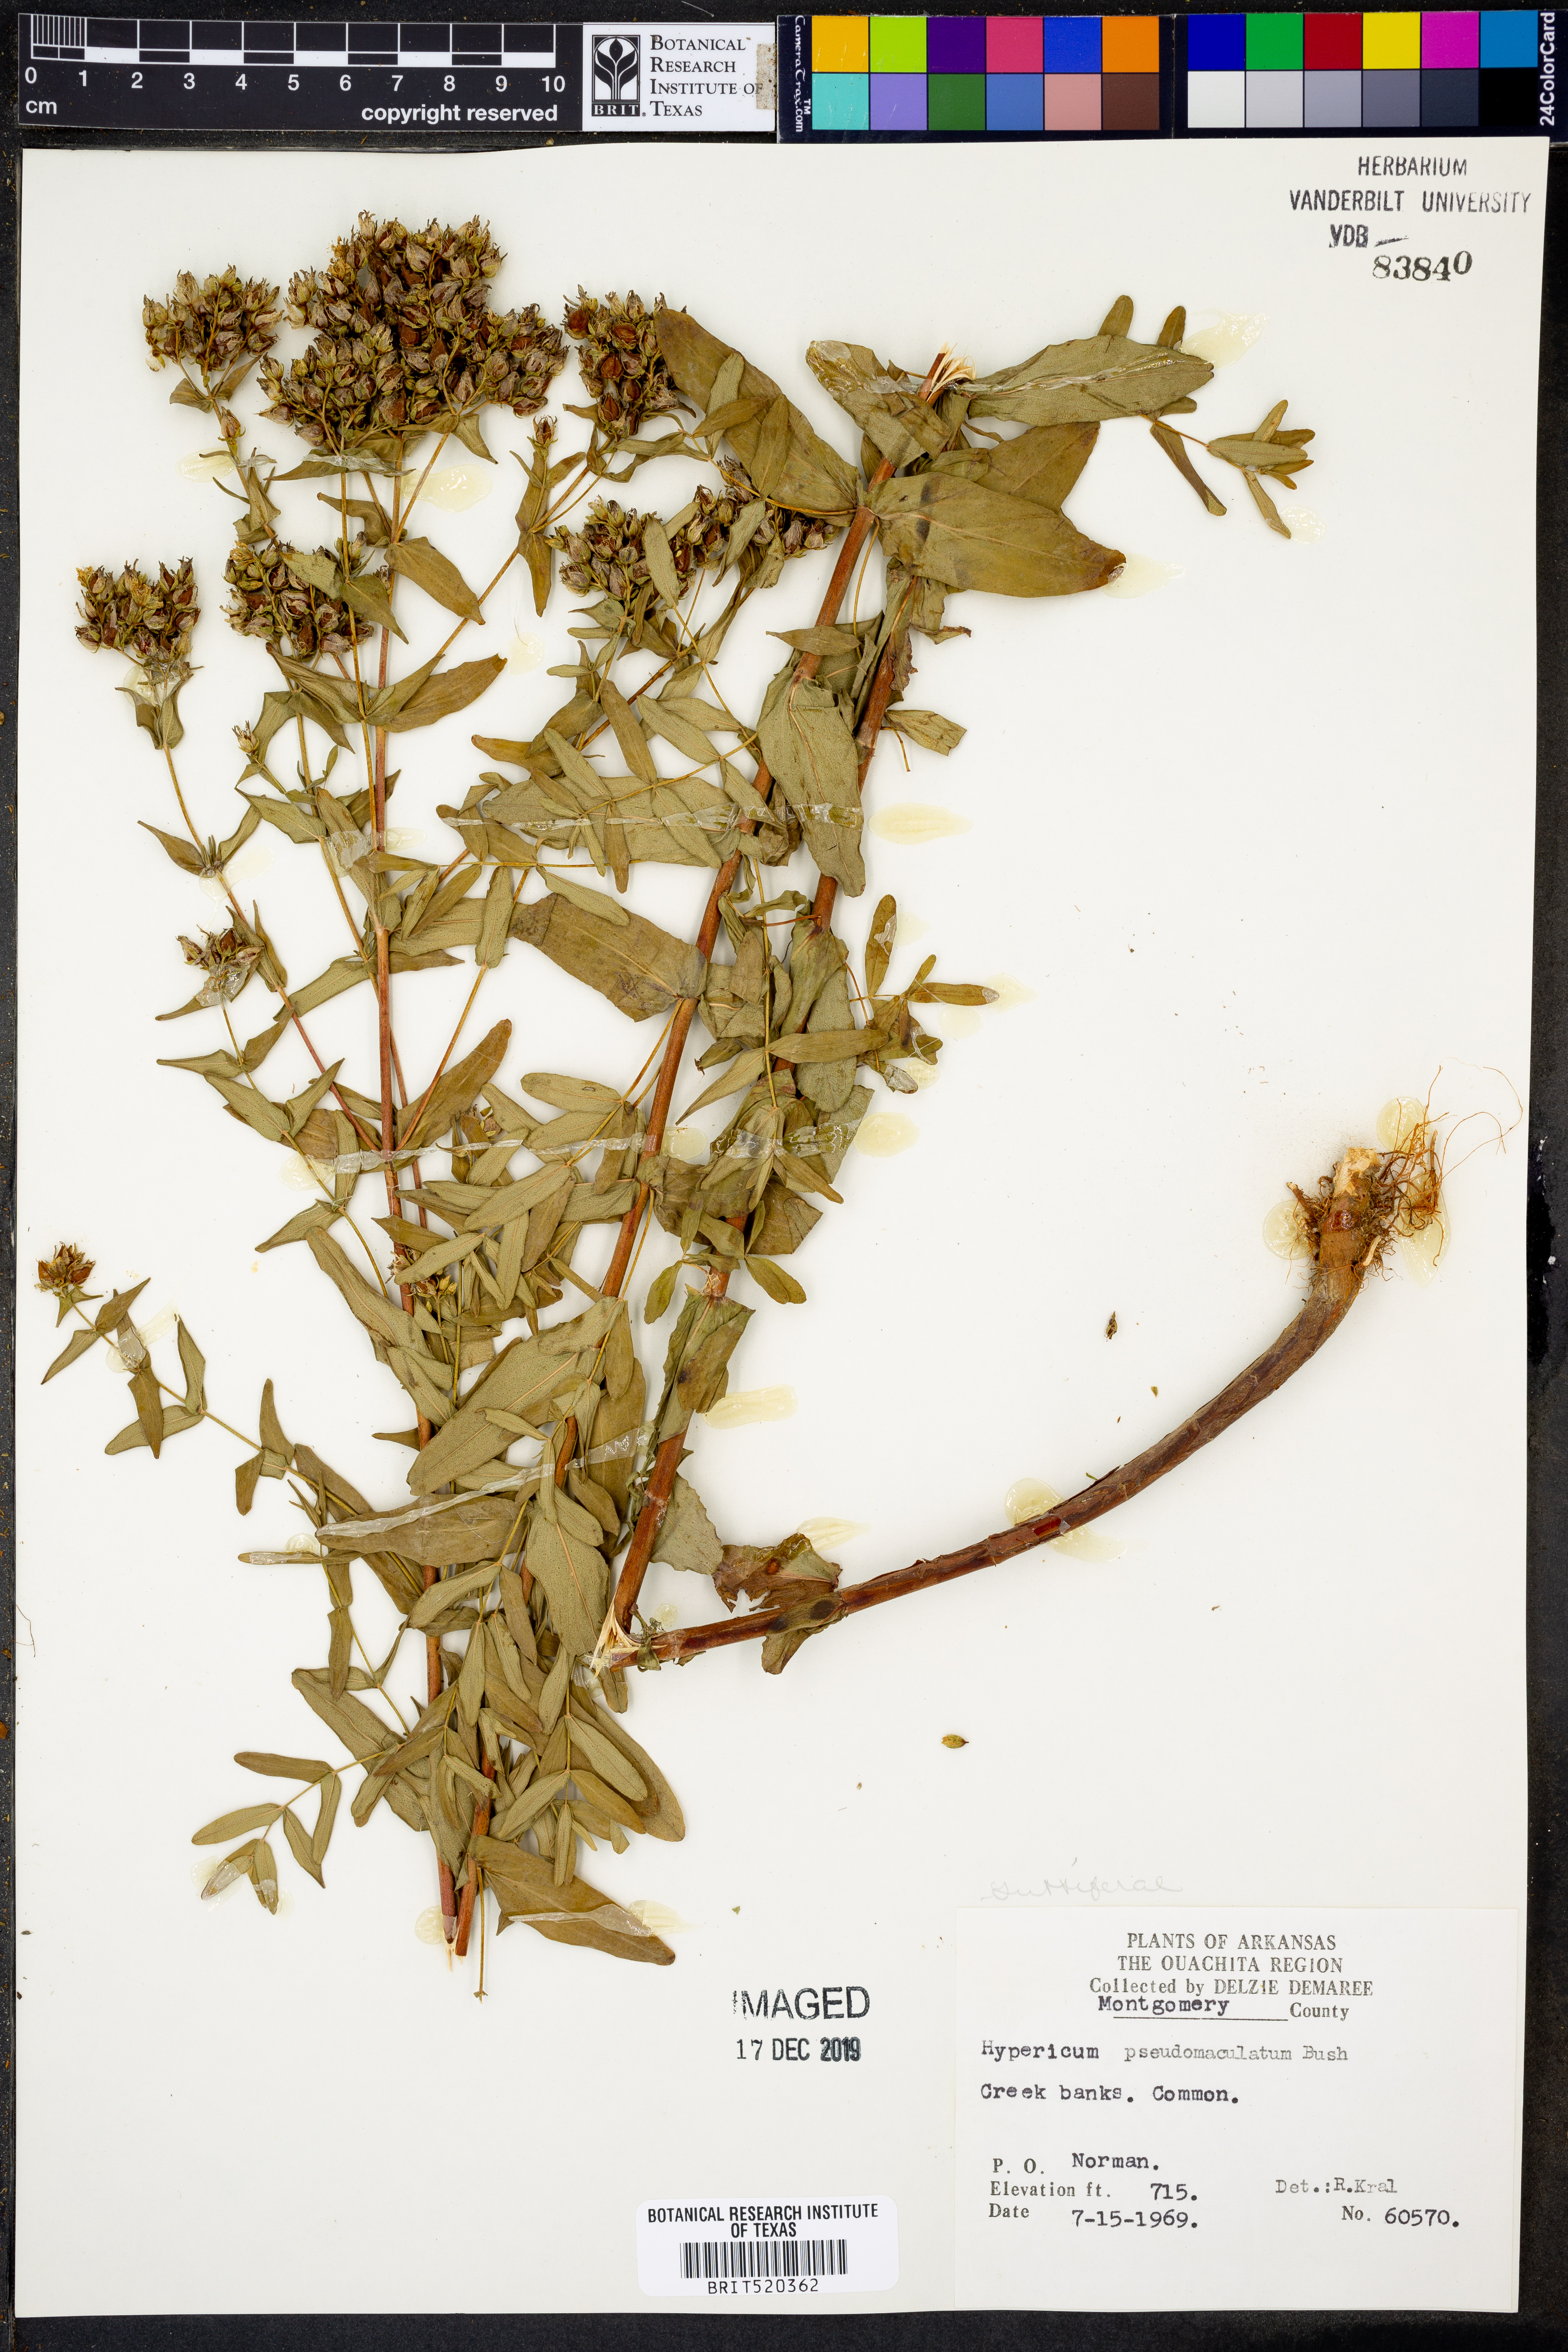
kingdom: Plantae
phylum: Tracheophyta
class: Magnoliopsida
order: Malpighiales
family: Hypericaceae
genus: Hypericum
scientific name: Hypericum pseudomaculatum
